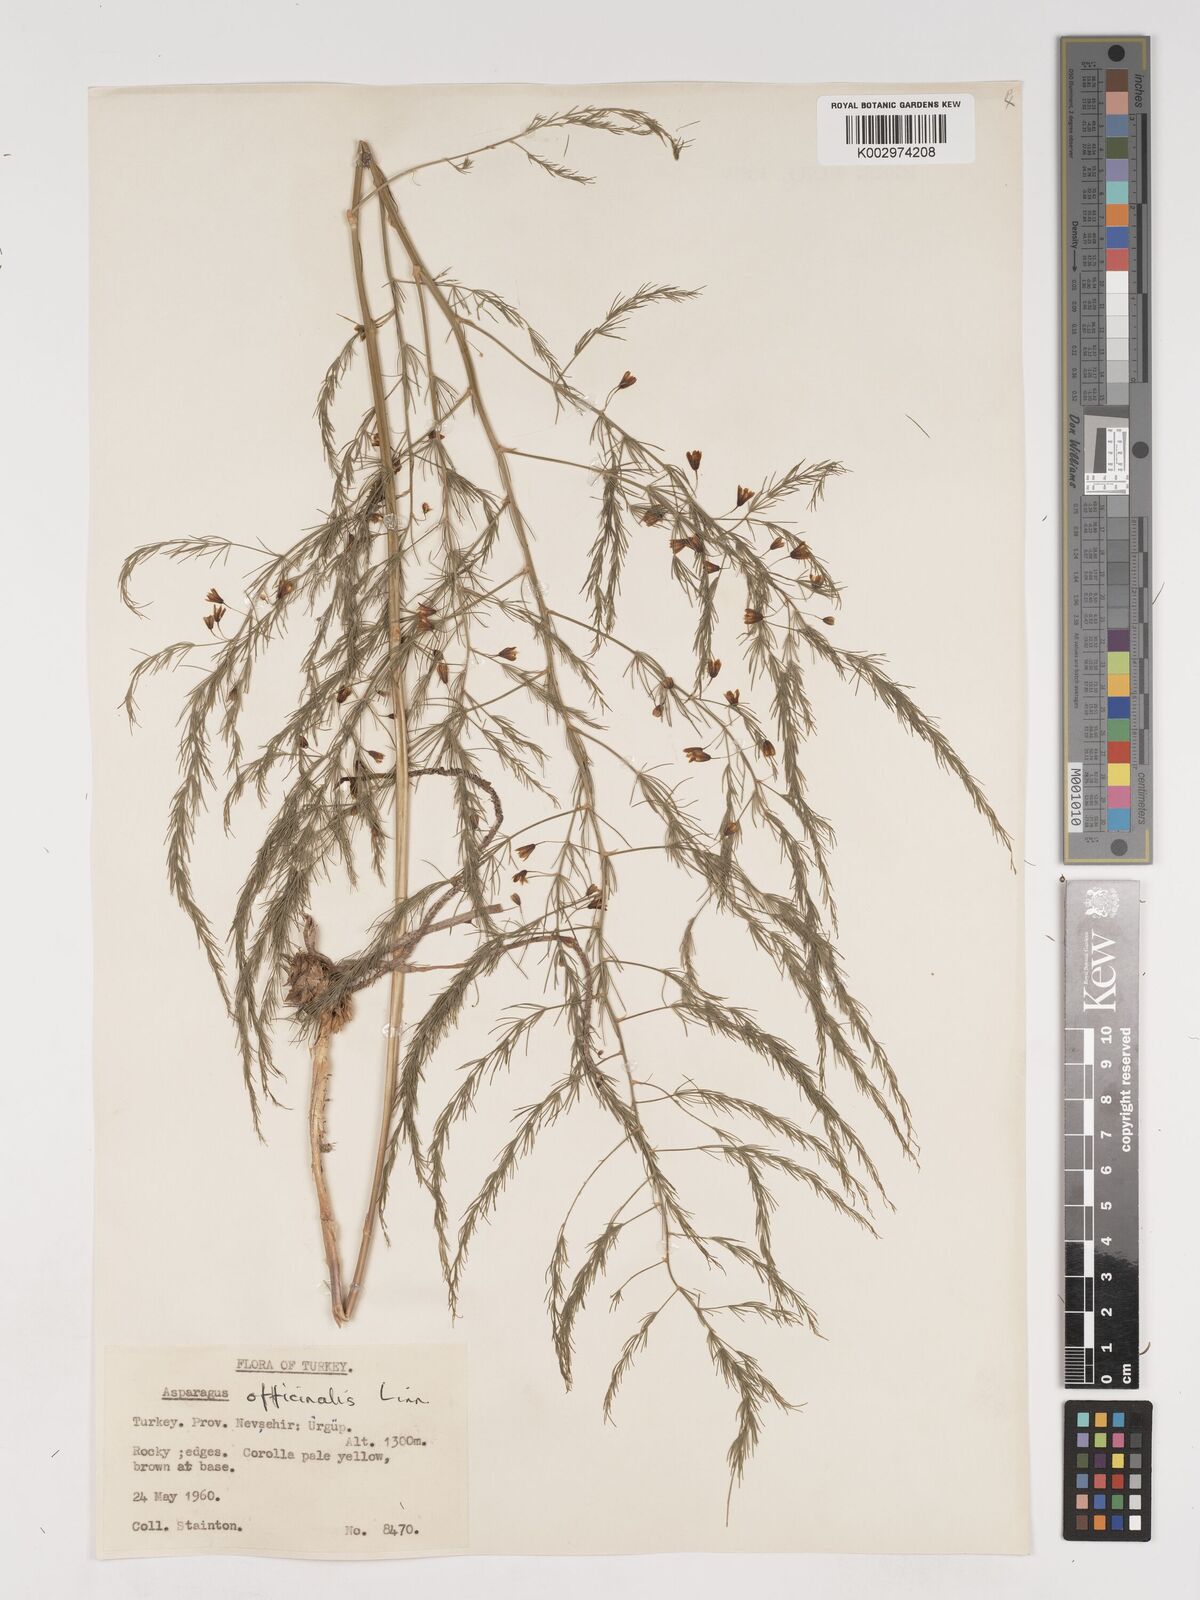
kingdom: Plantae
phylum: Tracheophyta
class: Liliopsida
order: Asparagales
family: Asparagaceae
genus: Asparagus
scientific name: Asparagus officinalis
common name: Garden asparagus
